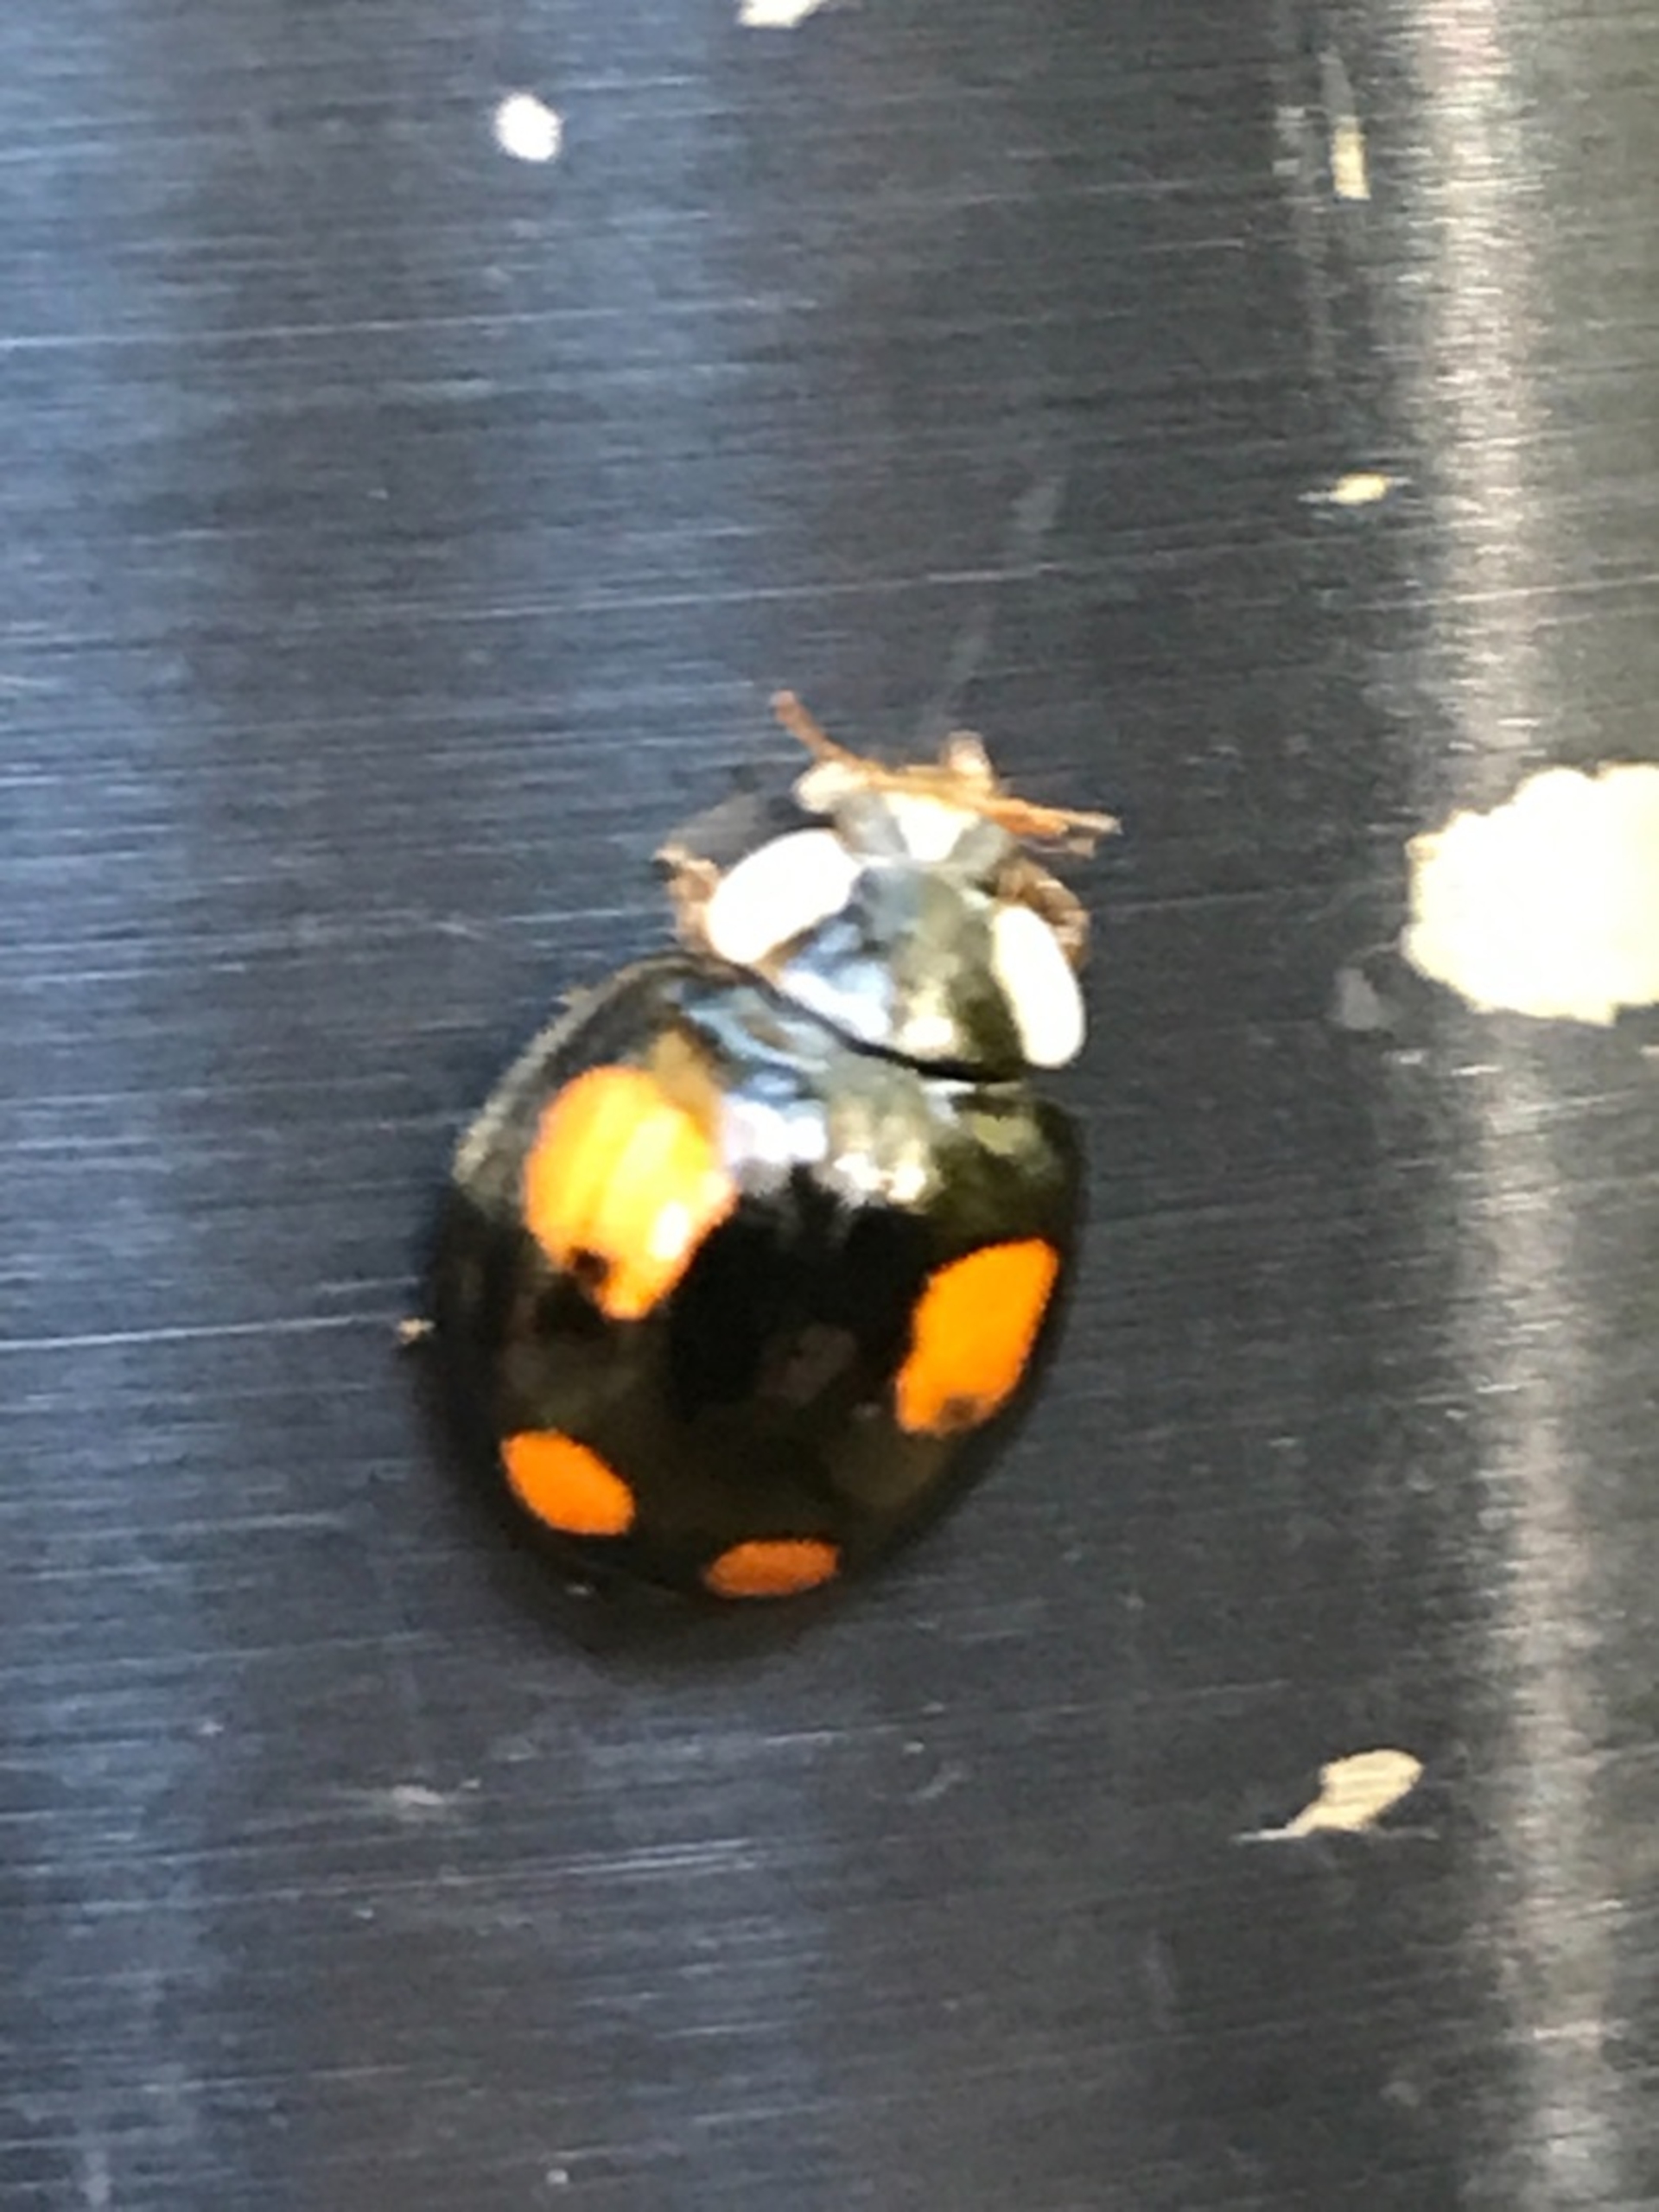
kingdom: Animalia
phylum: Arthropoda
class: Insecta
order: Coleoptera
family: Coccinellidae
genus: Harmonia
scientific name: Harmonia axyridis
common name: Harlekinmariehøne
